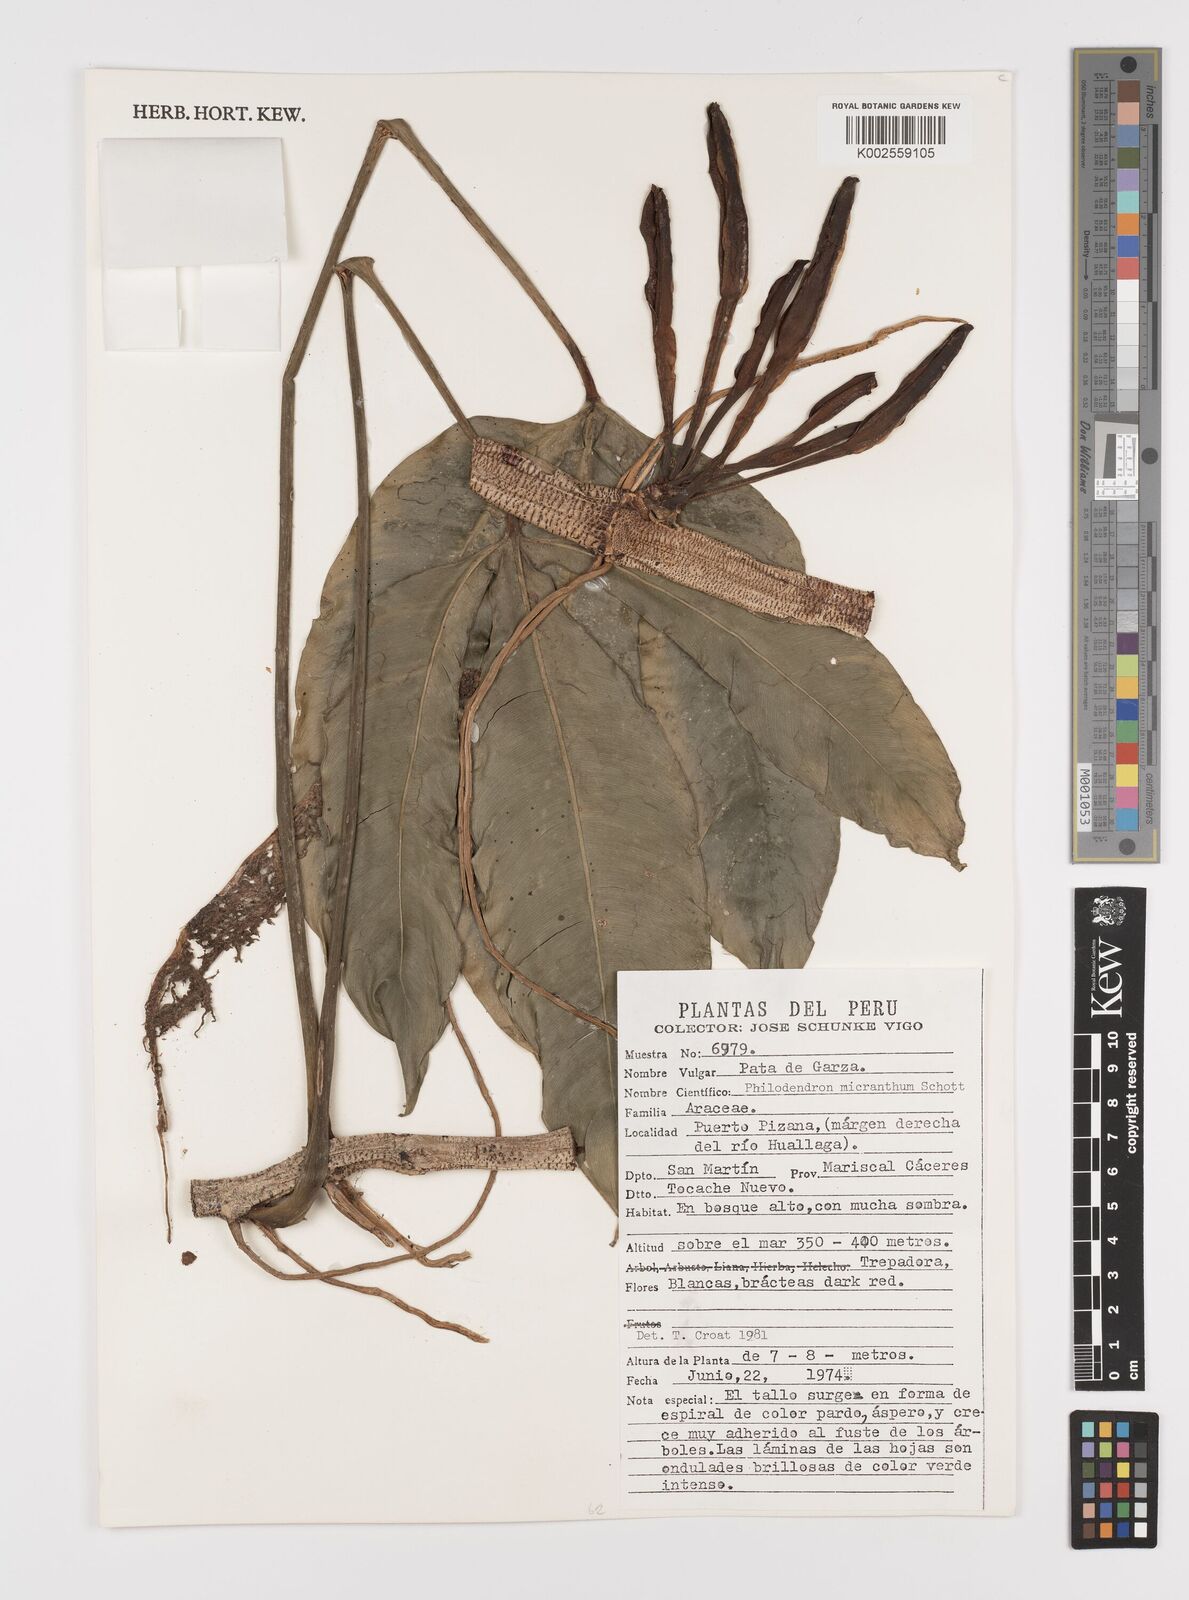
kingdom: Plantae
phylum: Tracheophyta
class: Liliopsida
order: Alismatales
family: Araceae
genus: Philodendron
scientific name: Philodendron micranthum
